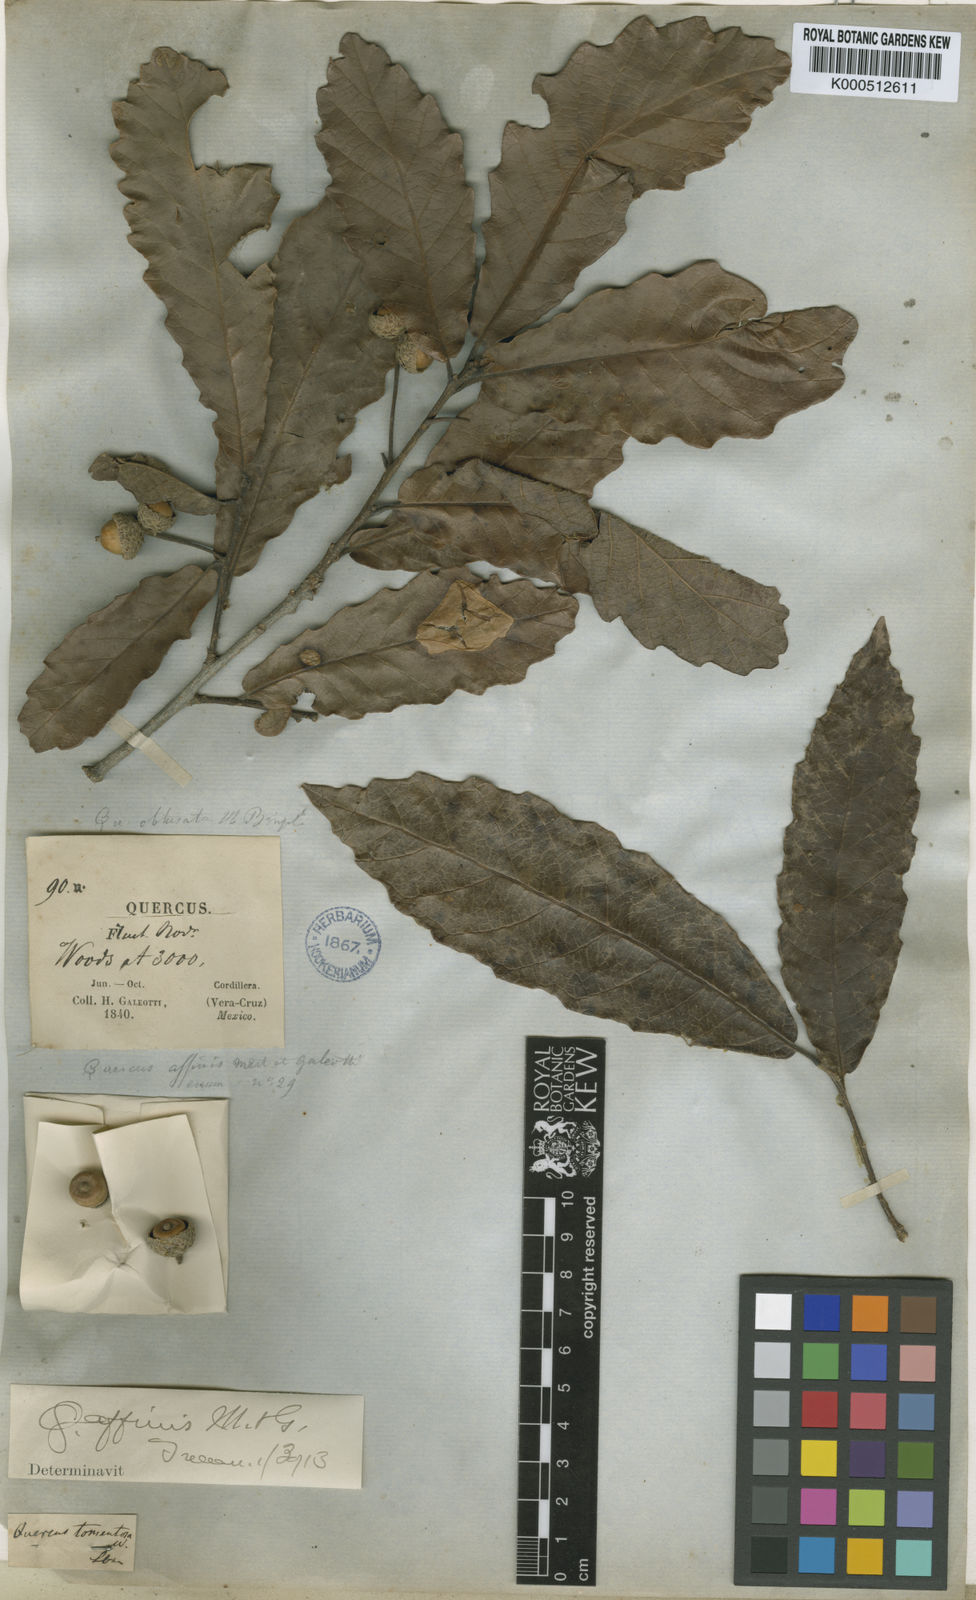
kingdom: Plantae
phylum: Tracheophyta
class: Magnoliopsida
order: Fagales
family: Fagaceae
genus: Quercus
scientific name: Quercus peduncularis
